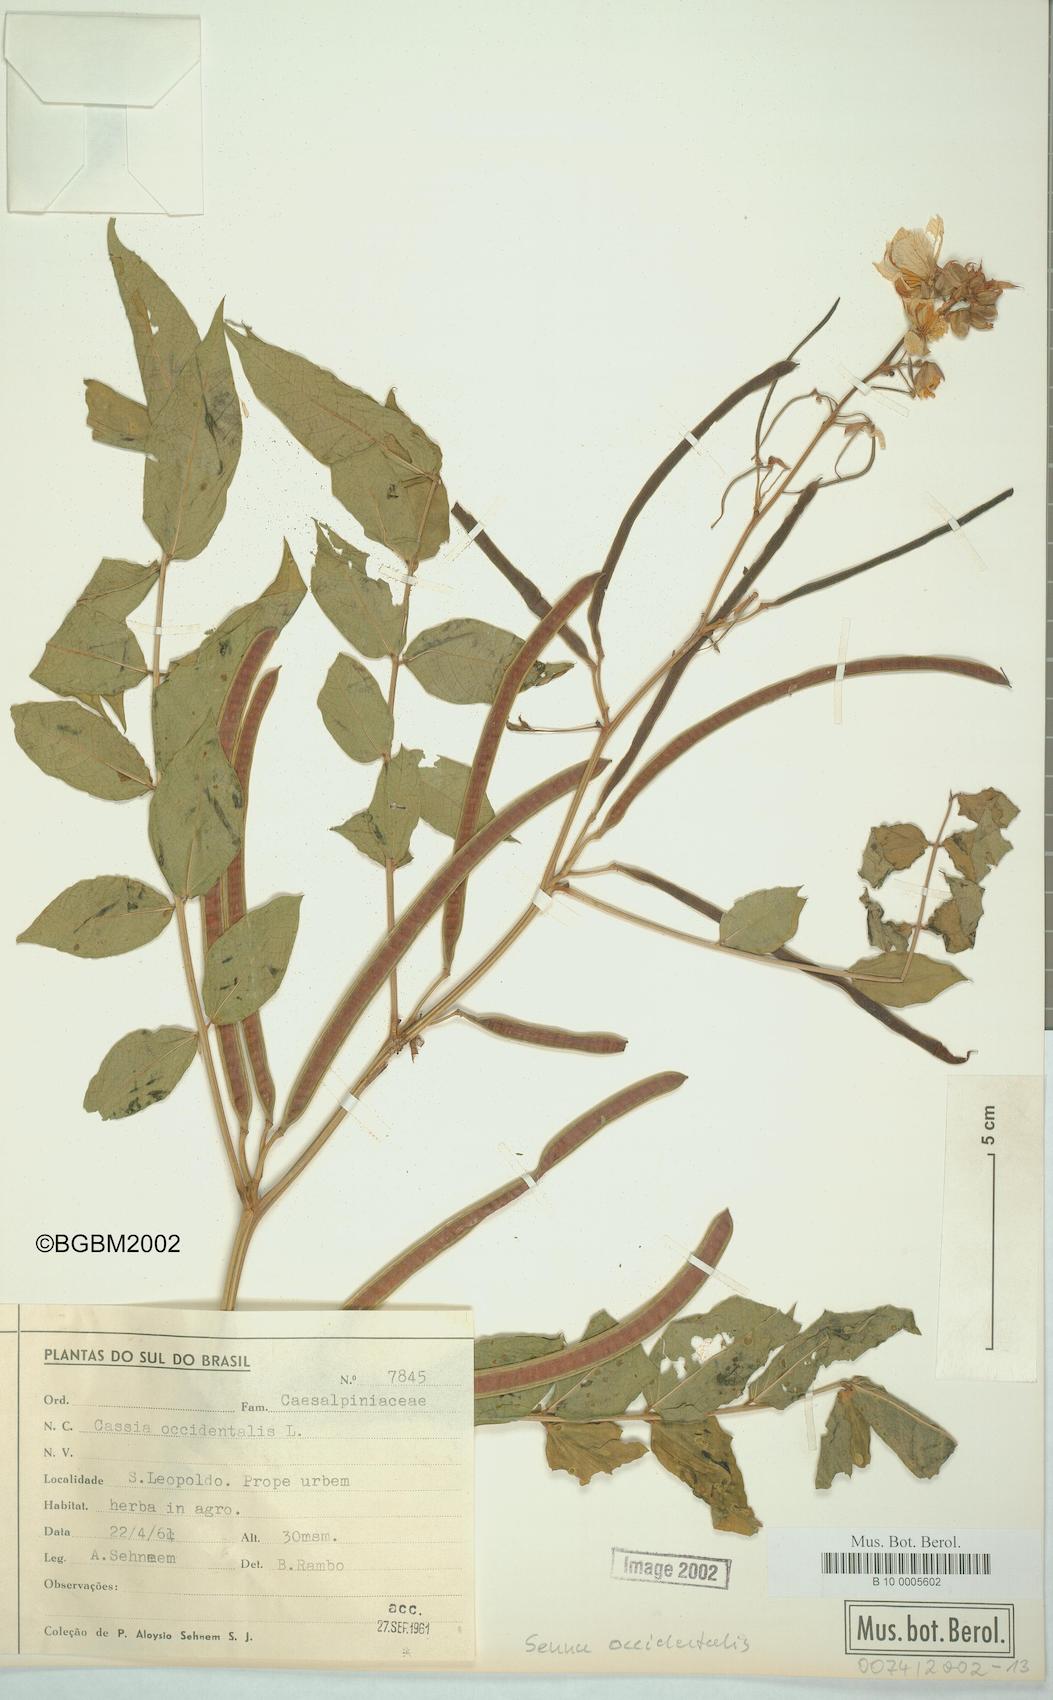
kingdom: Plantae
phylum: Tracheophyta
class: Magnoliopsida
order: Fabales
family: Fabaceae
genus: Senna
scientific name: Senna occidentalis
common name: Septicweed
